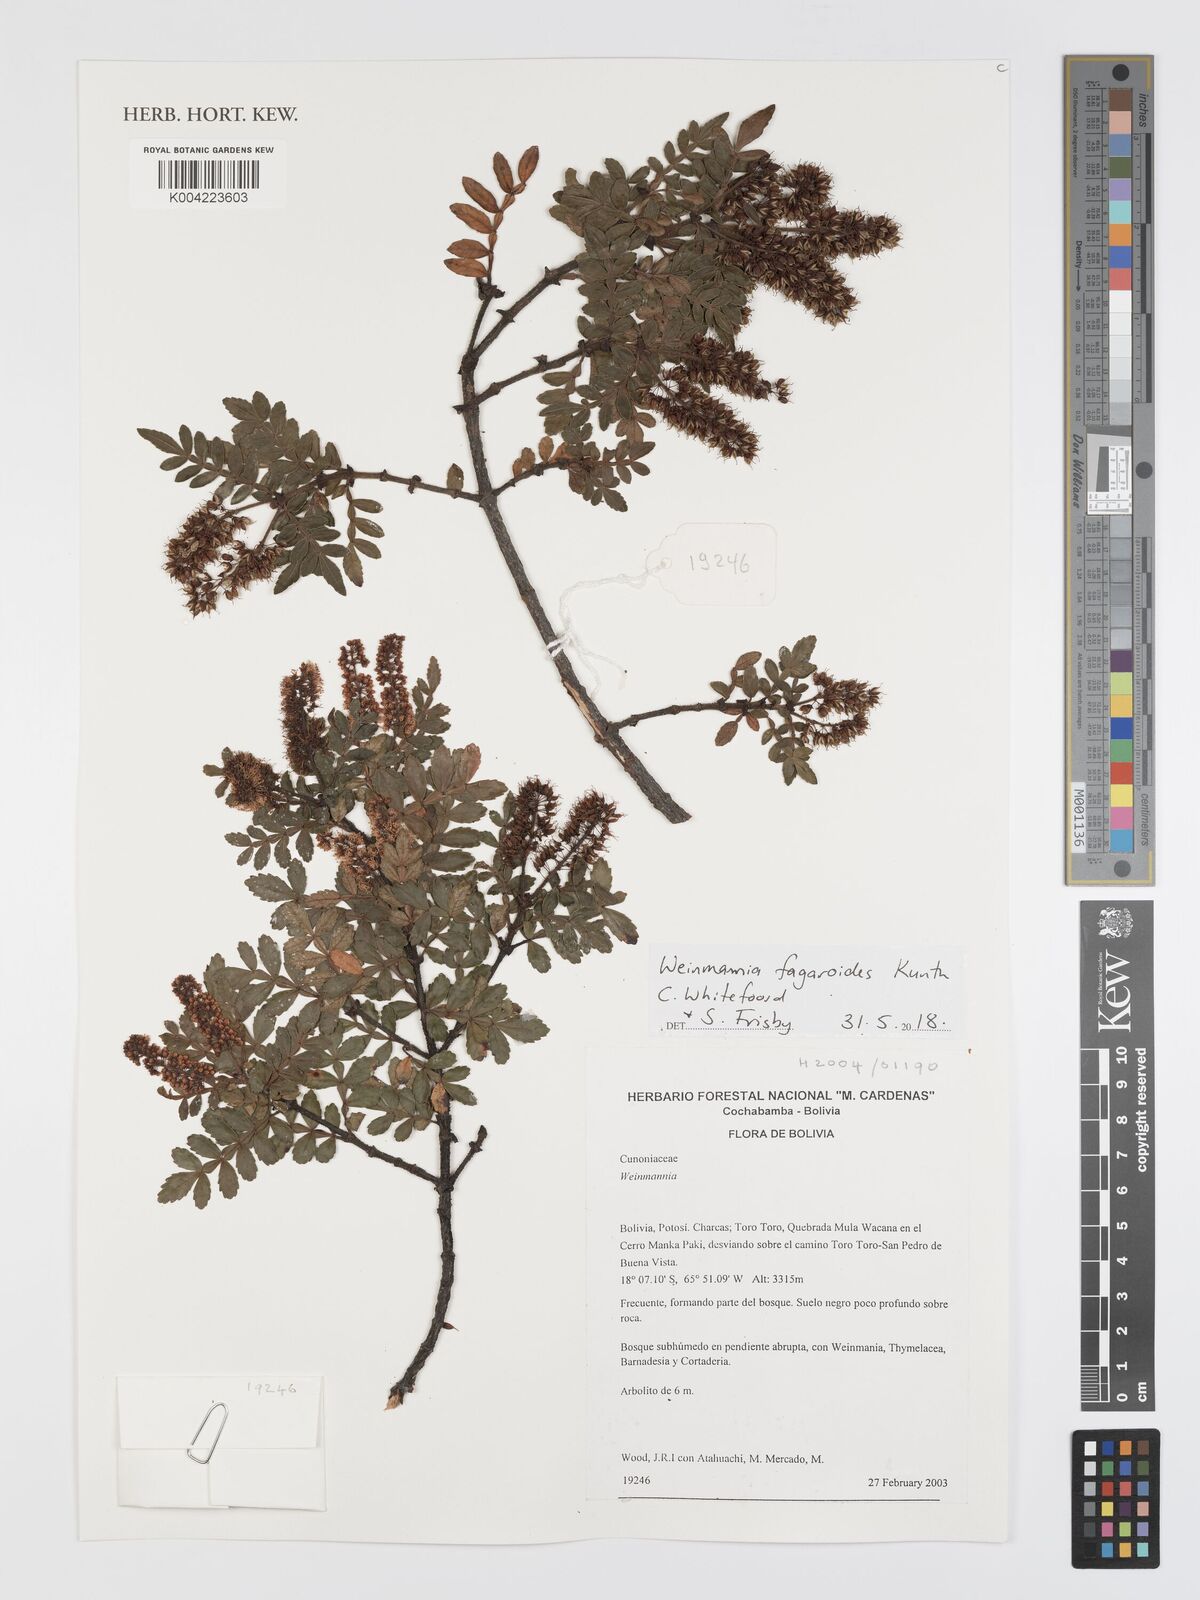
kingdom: Plantae
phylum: Tracheophyta
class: Magnoliopsida
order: Oxalidales
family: Cunoniaceae
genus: Weinmannia
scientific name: Weinmannia fagaroides
